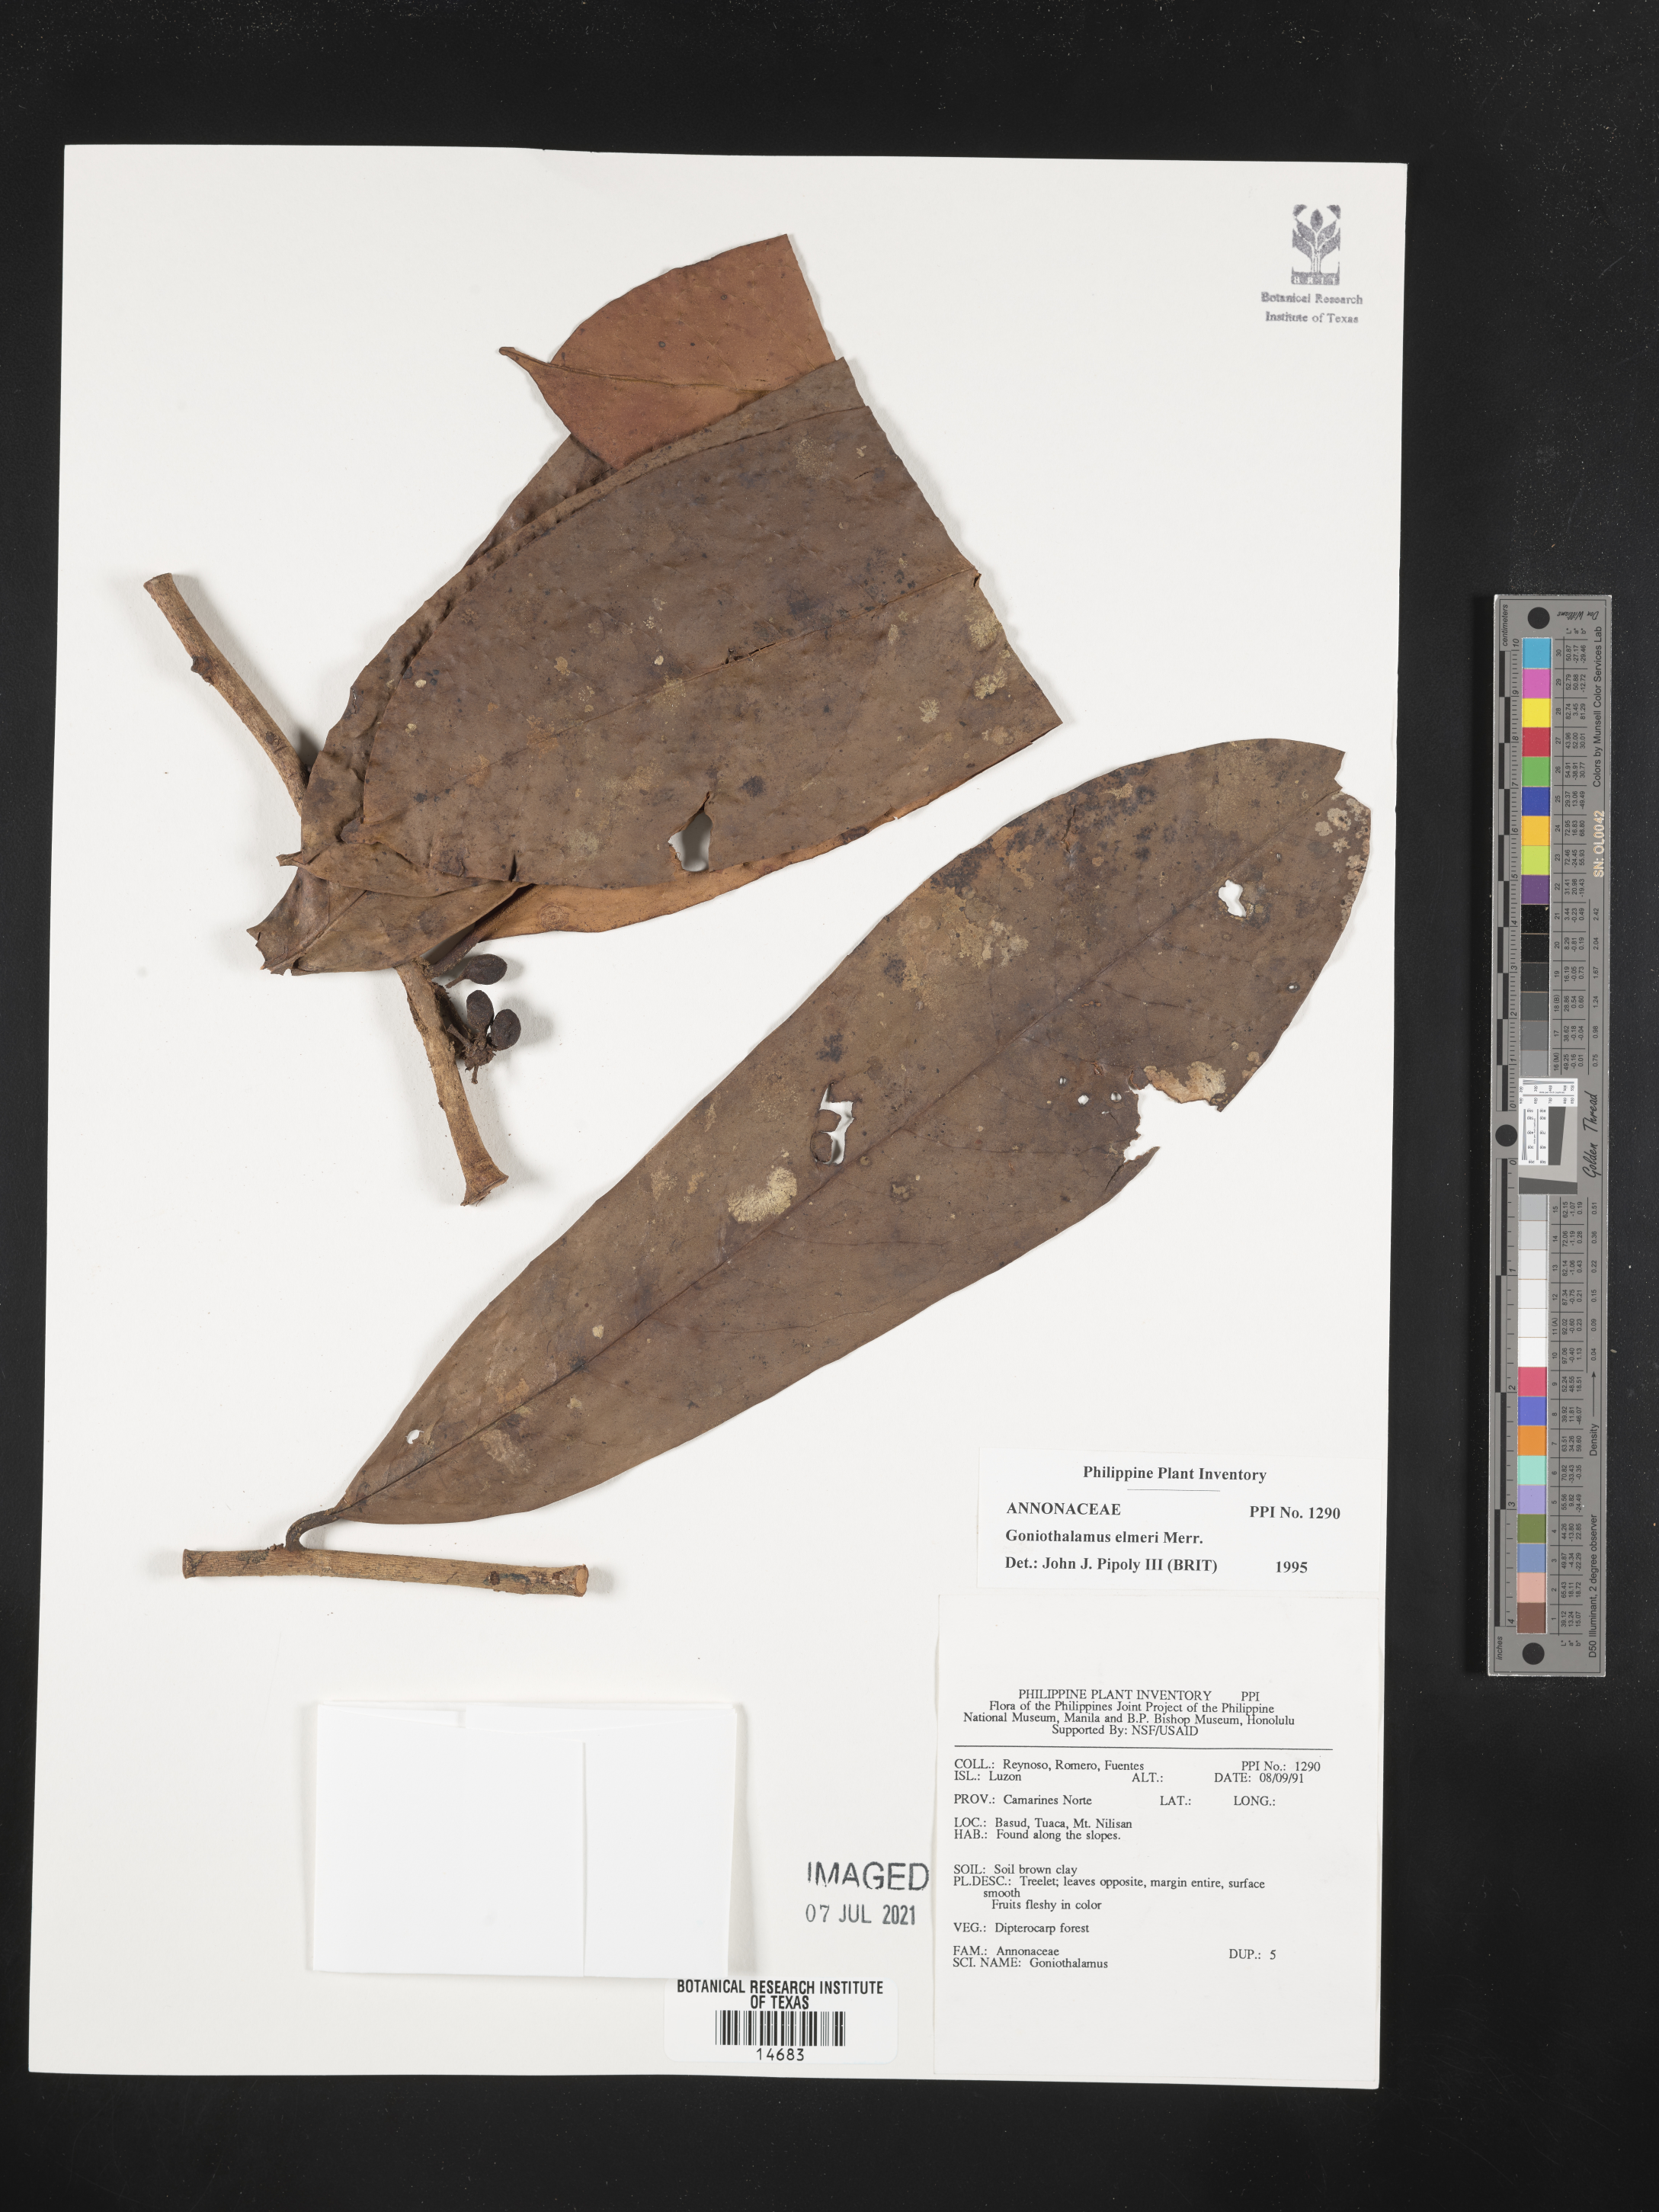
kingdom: Plantae
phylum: Tracheophyta
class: Magnoliopsida
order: Magnoliales
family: Annonaceae
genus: Goniothalamus
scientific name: Goniothalamus elmeri
